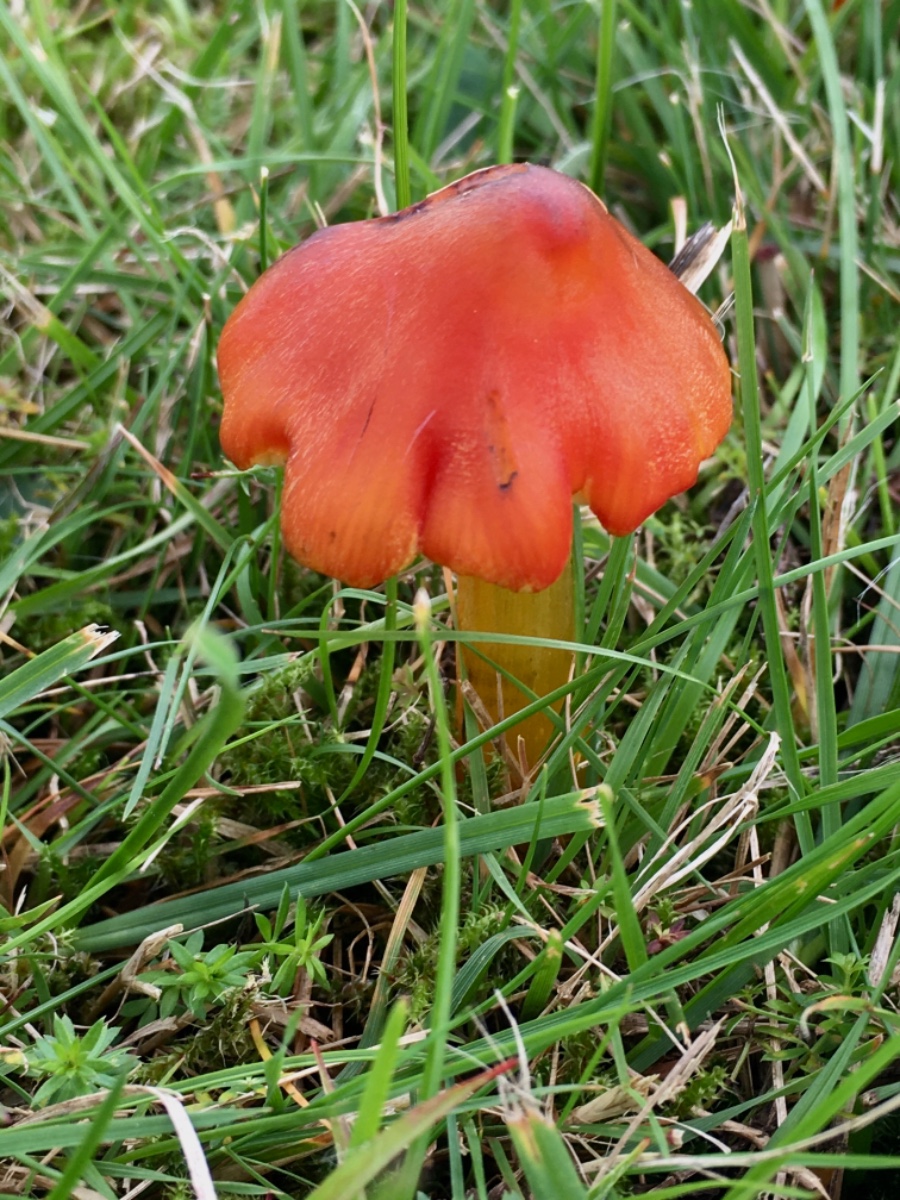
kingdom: Fungi
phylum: Basidiomycota
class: Agaricomycetes
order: Agaricales
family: Hygrophoraceae
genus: Hygrocybe
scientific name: Hygrocybe conica
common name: kegle-vokshat
